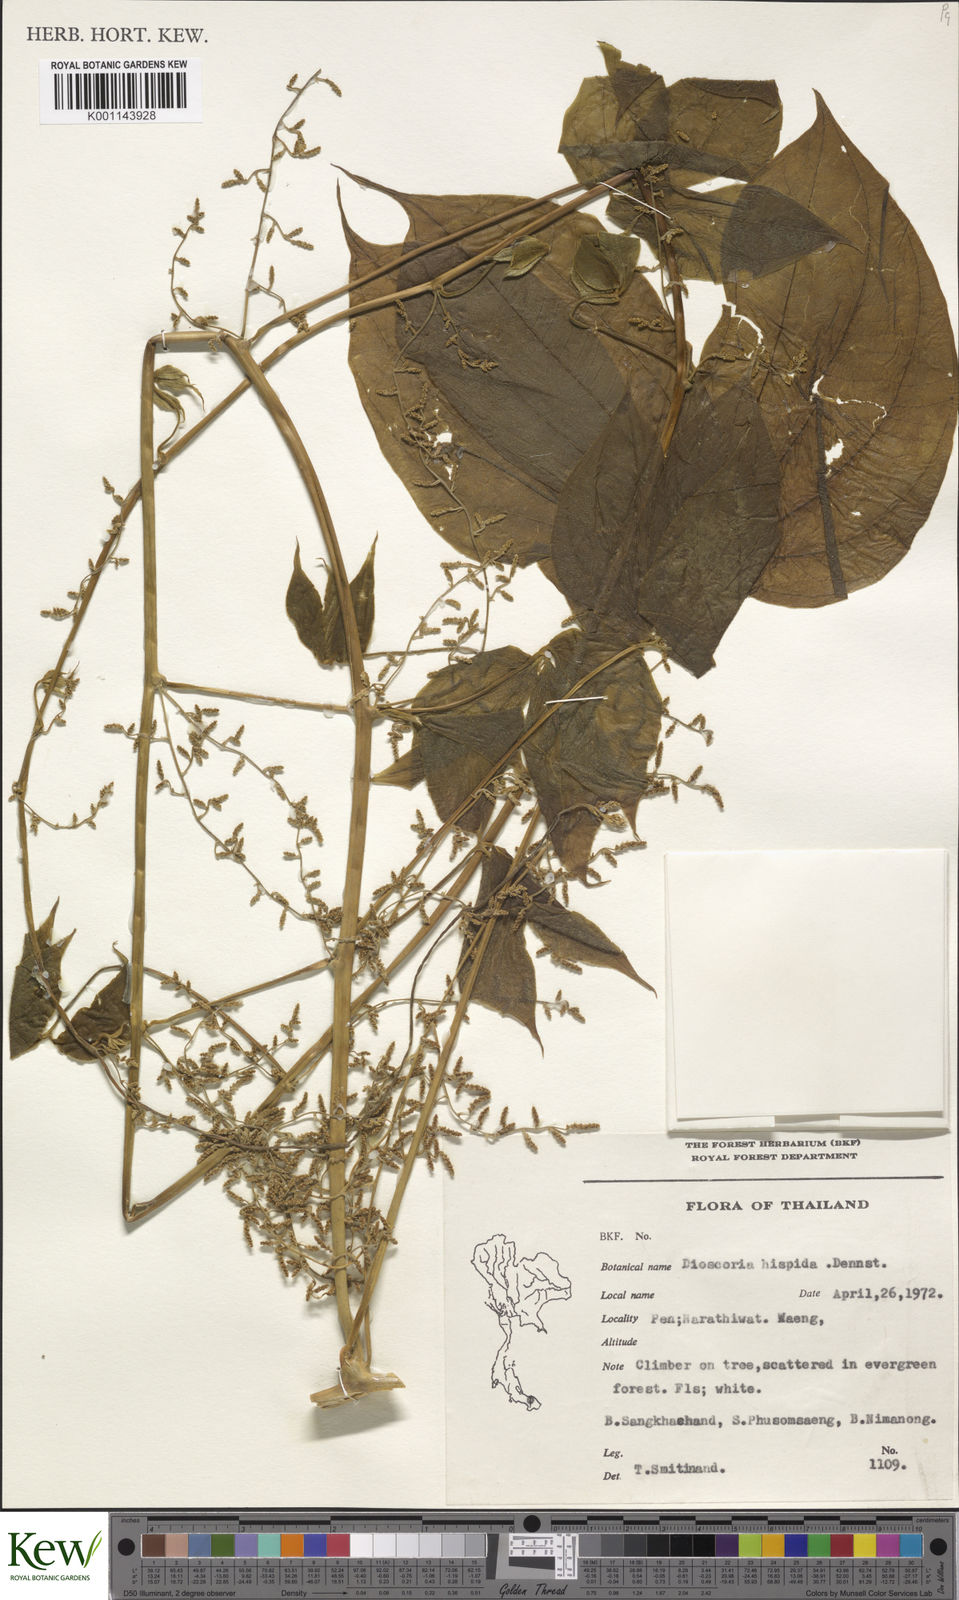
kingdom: Plantae
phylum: Tracheophyta
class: Liliopsida
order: Dioscoreales
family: Dioscoreaceae
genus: Dioscorea
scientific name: Dioscorea hispida
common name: Asiatic bitter yam
